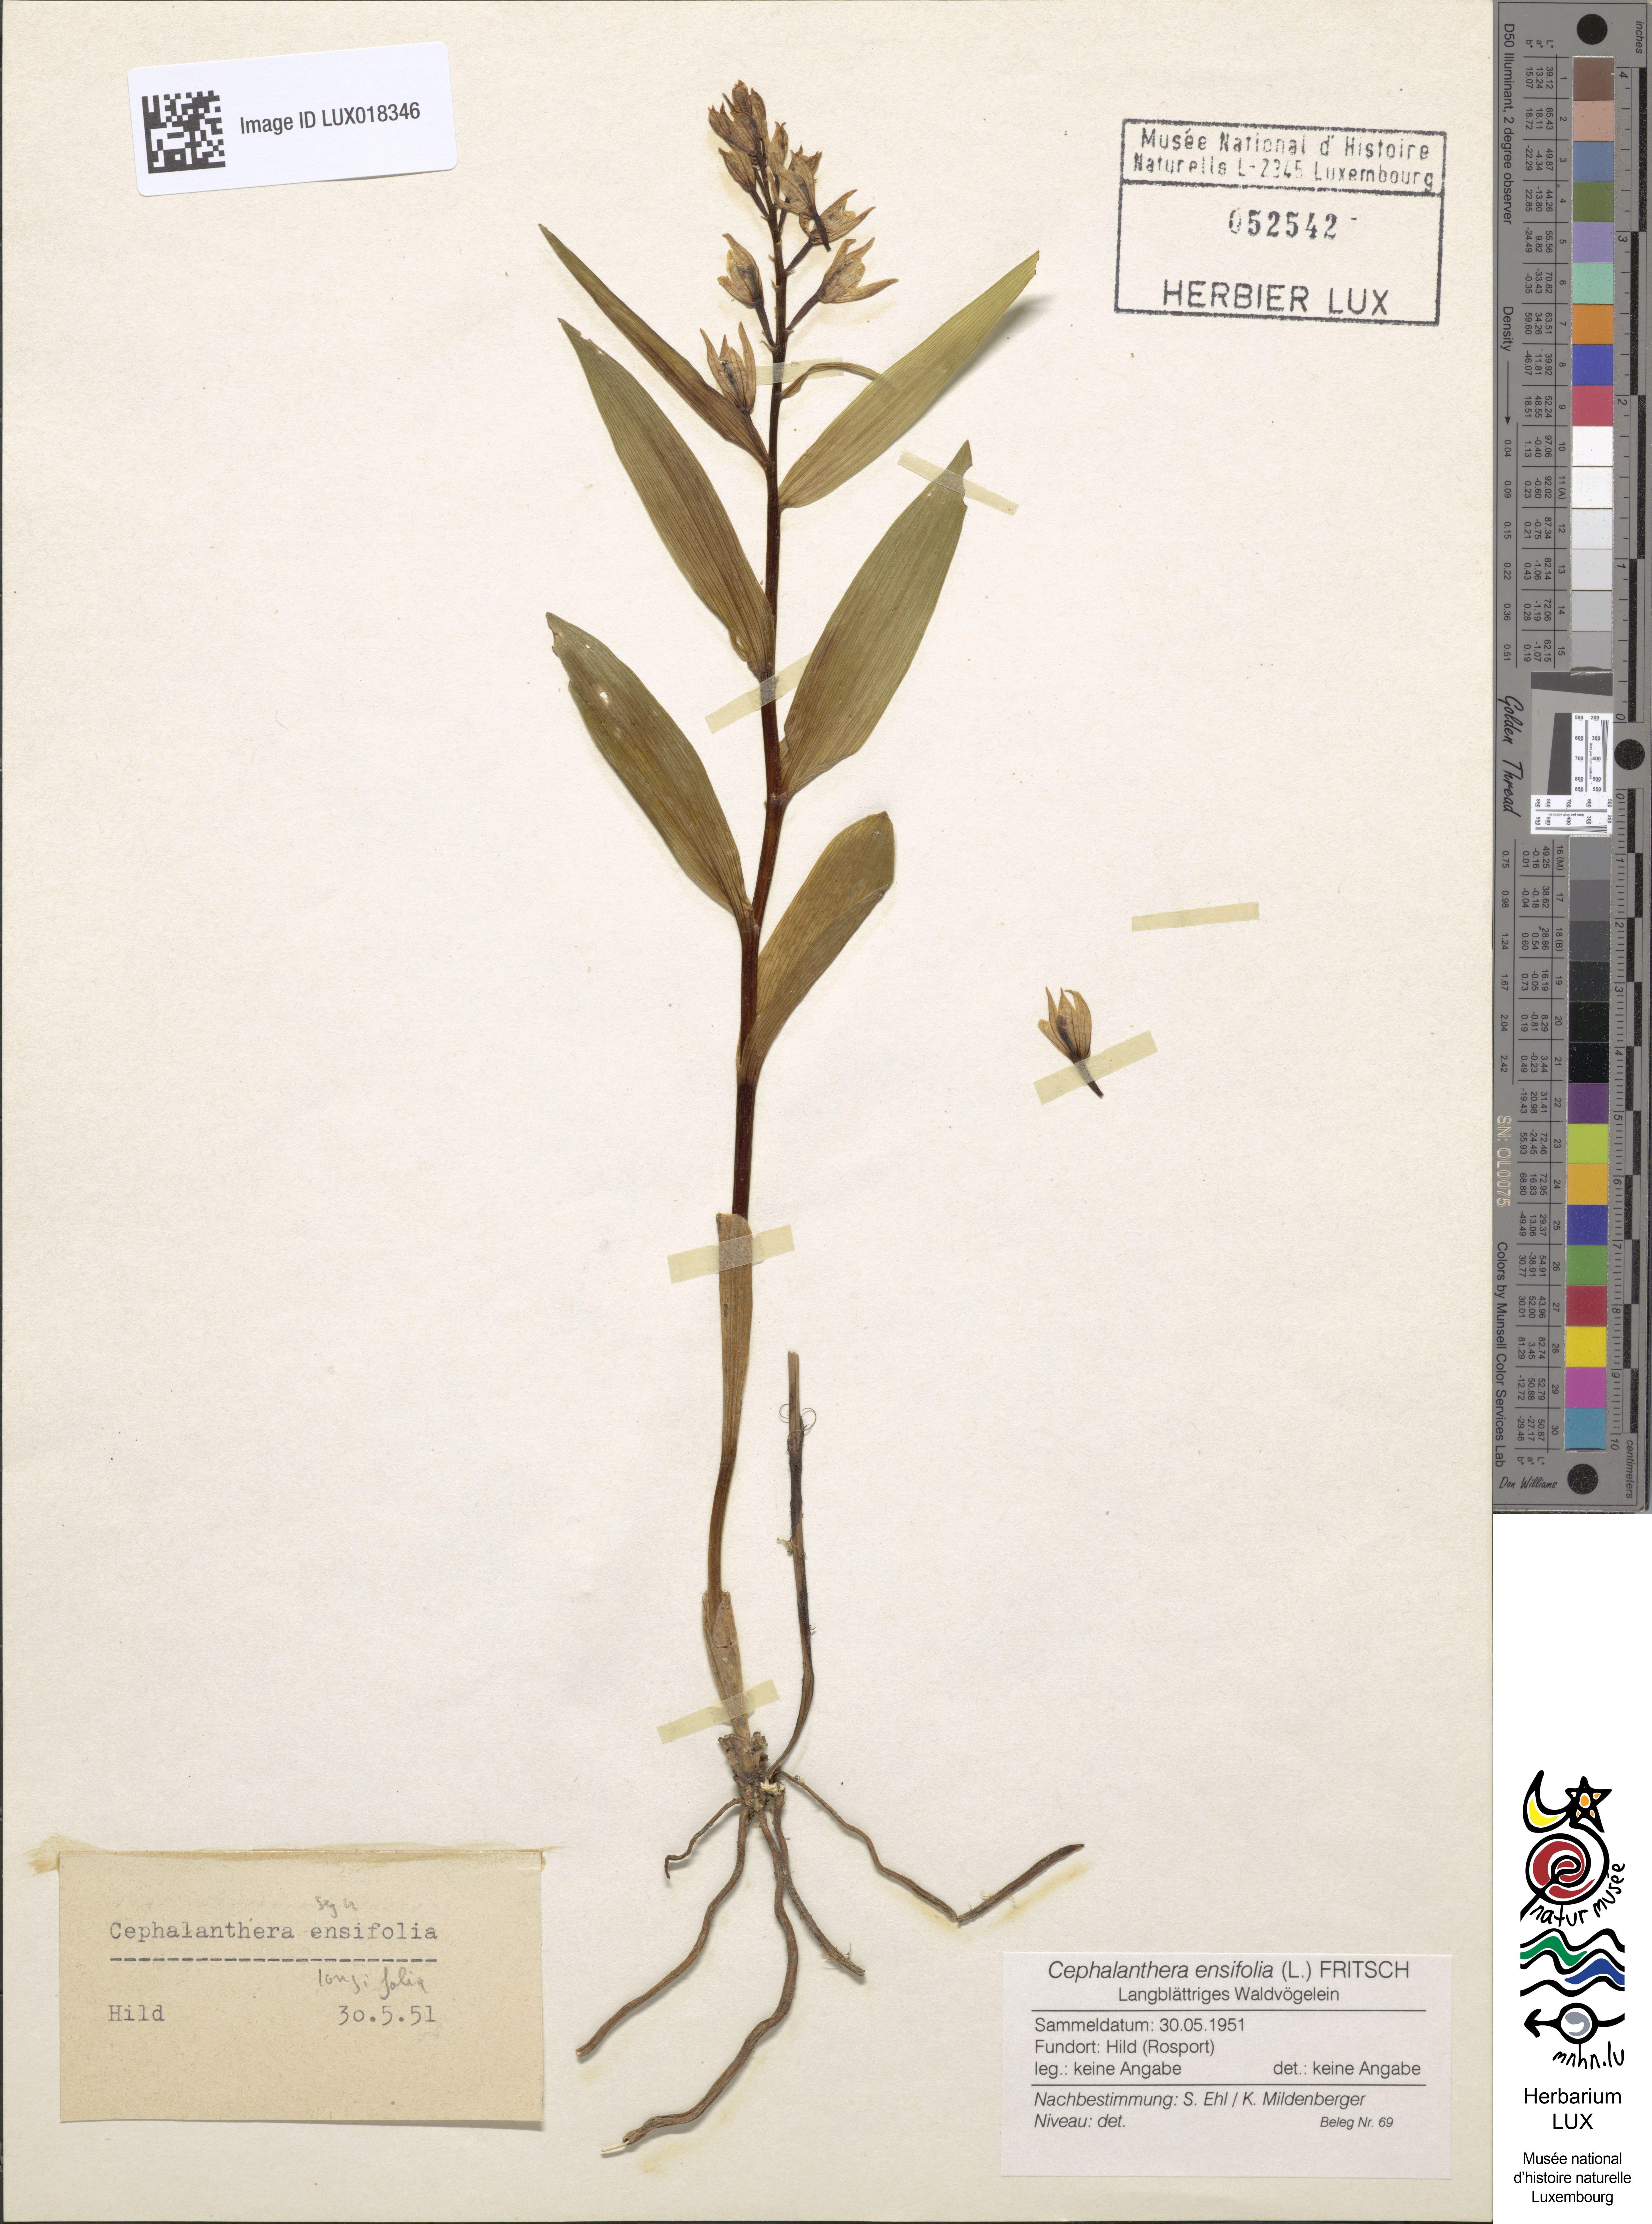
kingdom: Plantae
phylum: Tracheophyta
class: Liliopsida
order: Asparagales
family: Orchidaceae
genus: Cephalanthera
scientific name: Cephalanthera longifolia
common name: Narrow-leaved helleborine
